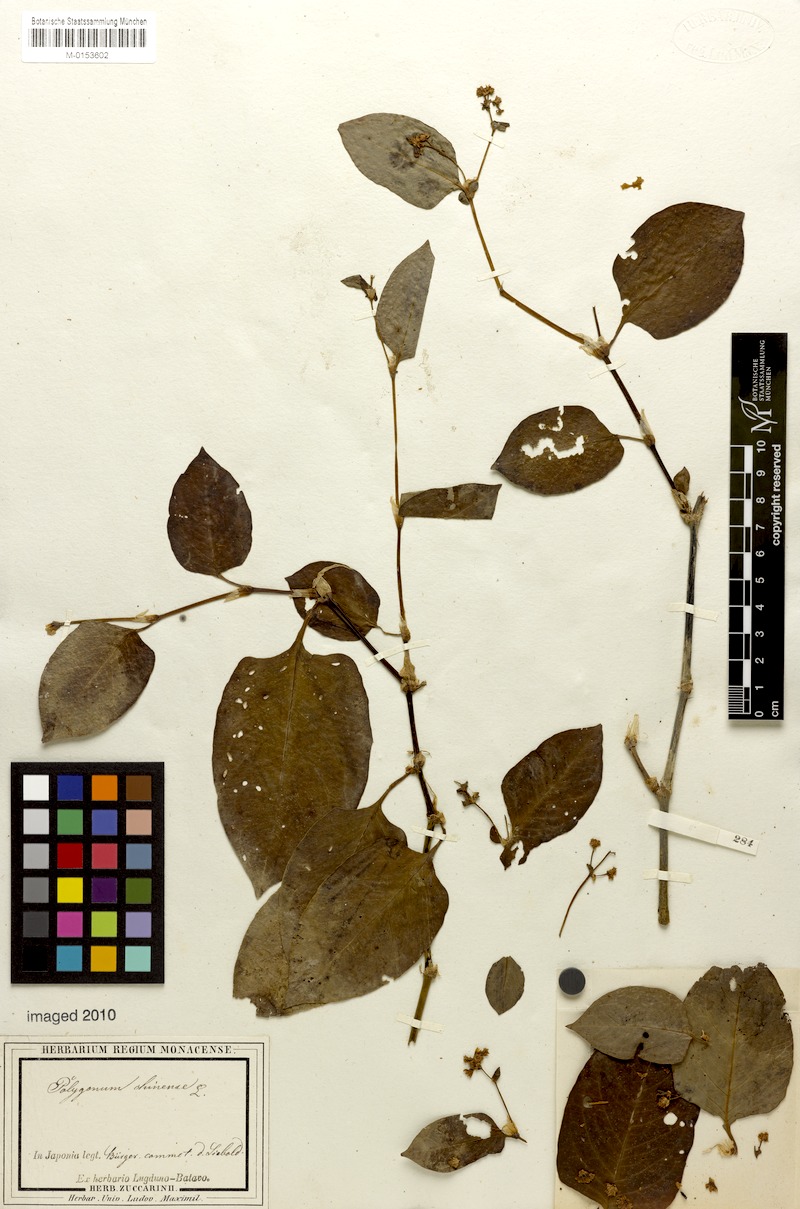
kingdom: Plantae
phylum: Tracheophyta
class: Magnoliopsida
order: Caryophyllales
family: Polygonaceae
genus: Persicaria
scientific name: Persicaria chinensis
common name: Chinese knotweed
